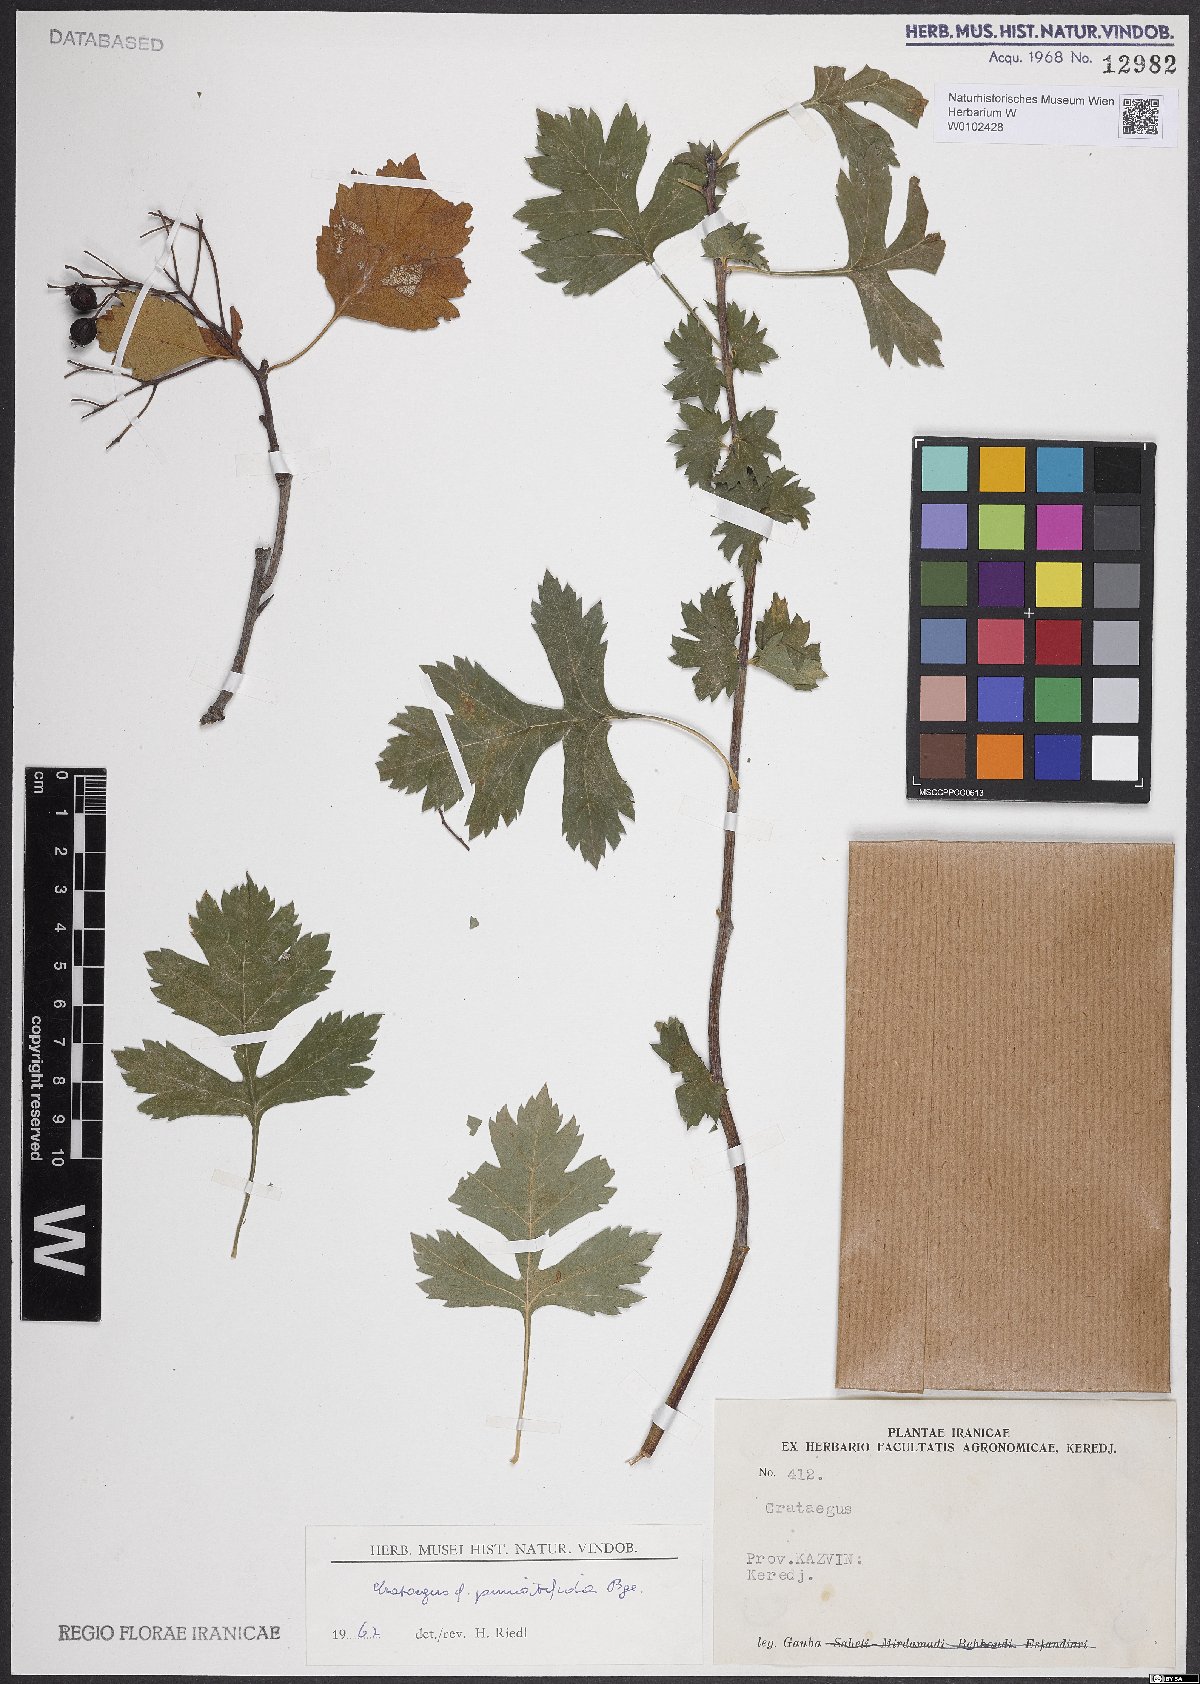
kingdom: Plantae
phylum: Tracheophyta
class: Magnoliopsida
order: Rosales
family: Rosaceae
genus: Crataegus
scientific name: Crataegus pinnatifida
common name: Chinese haw
